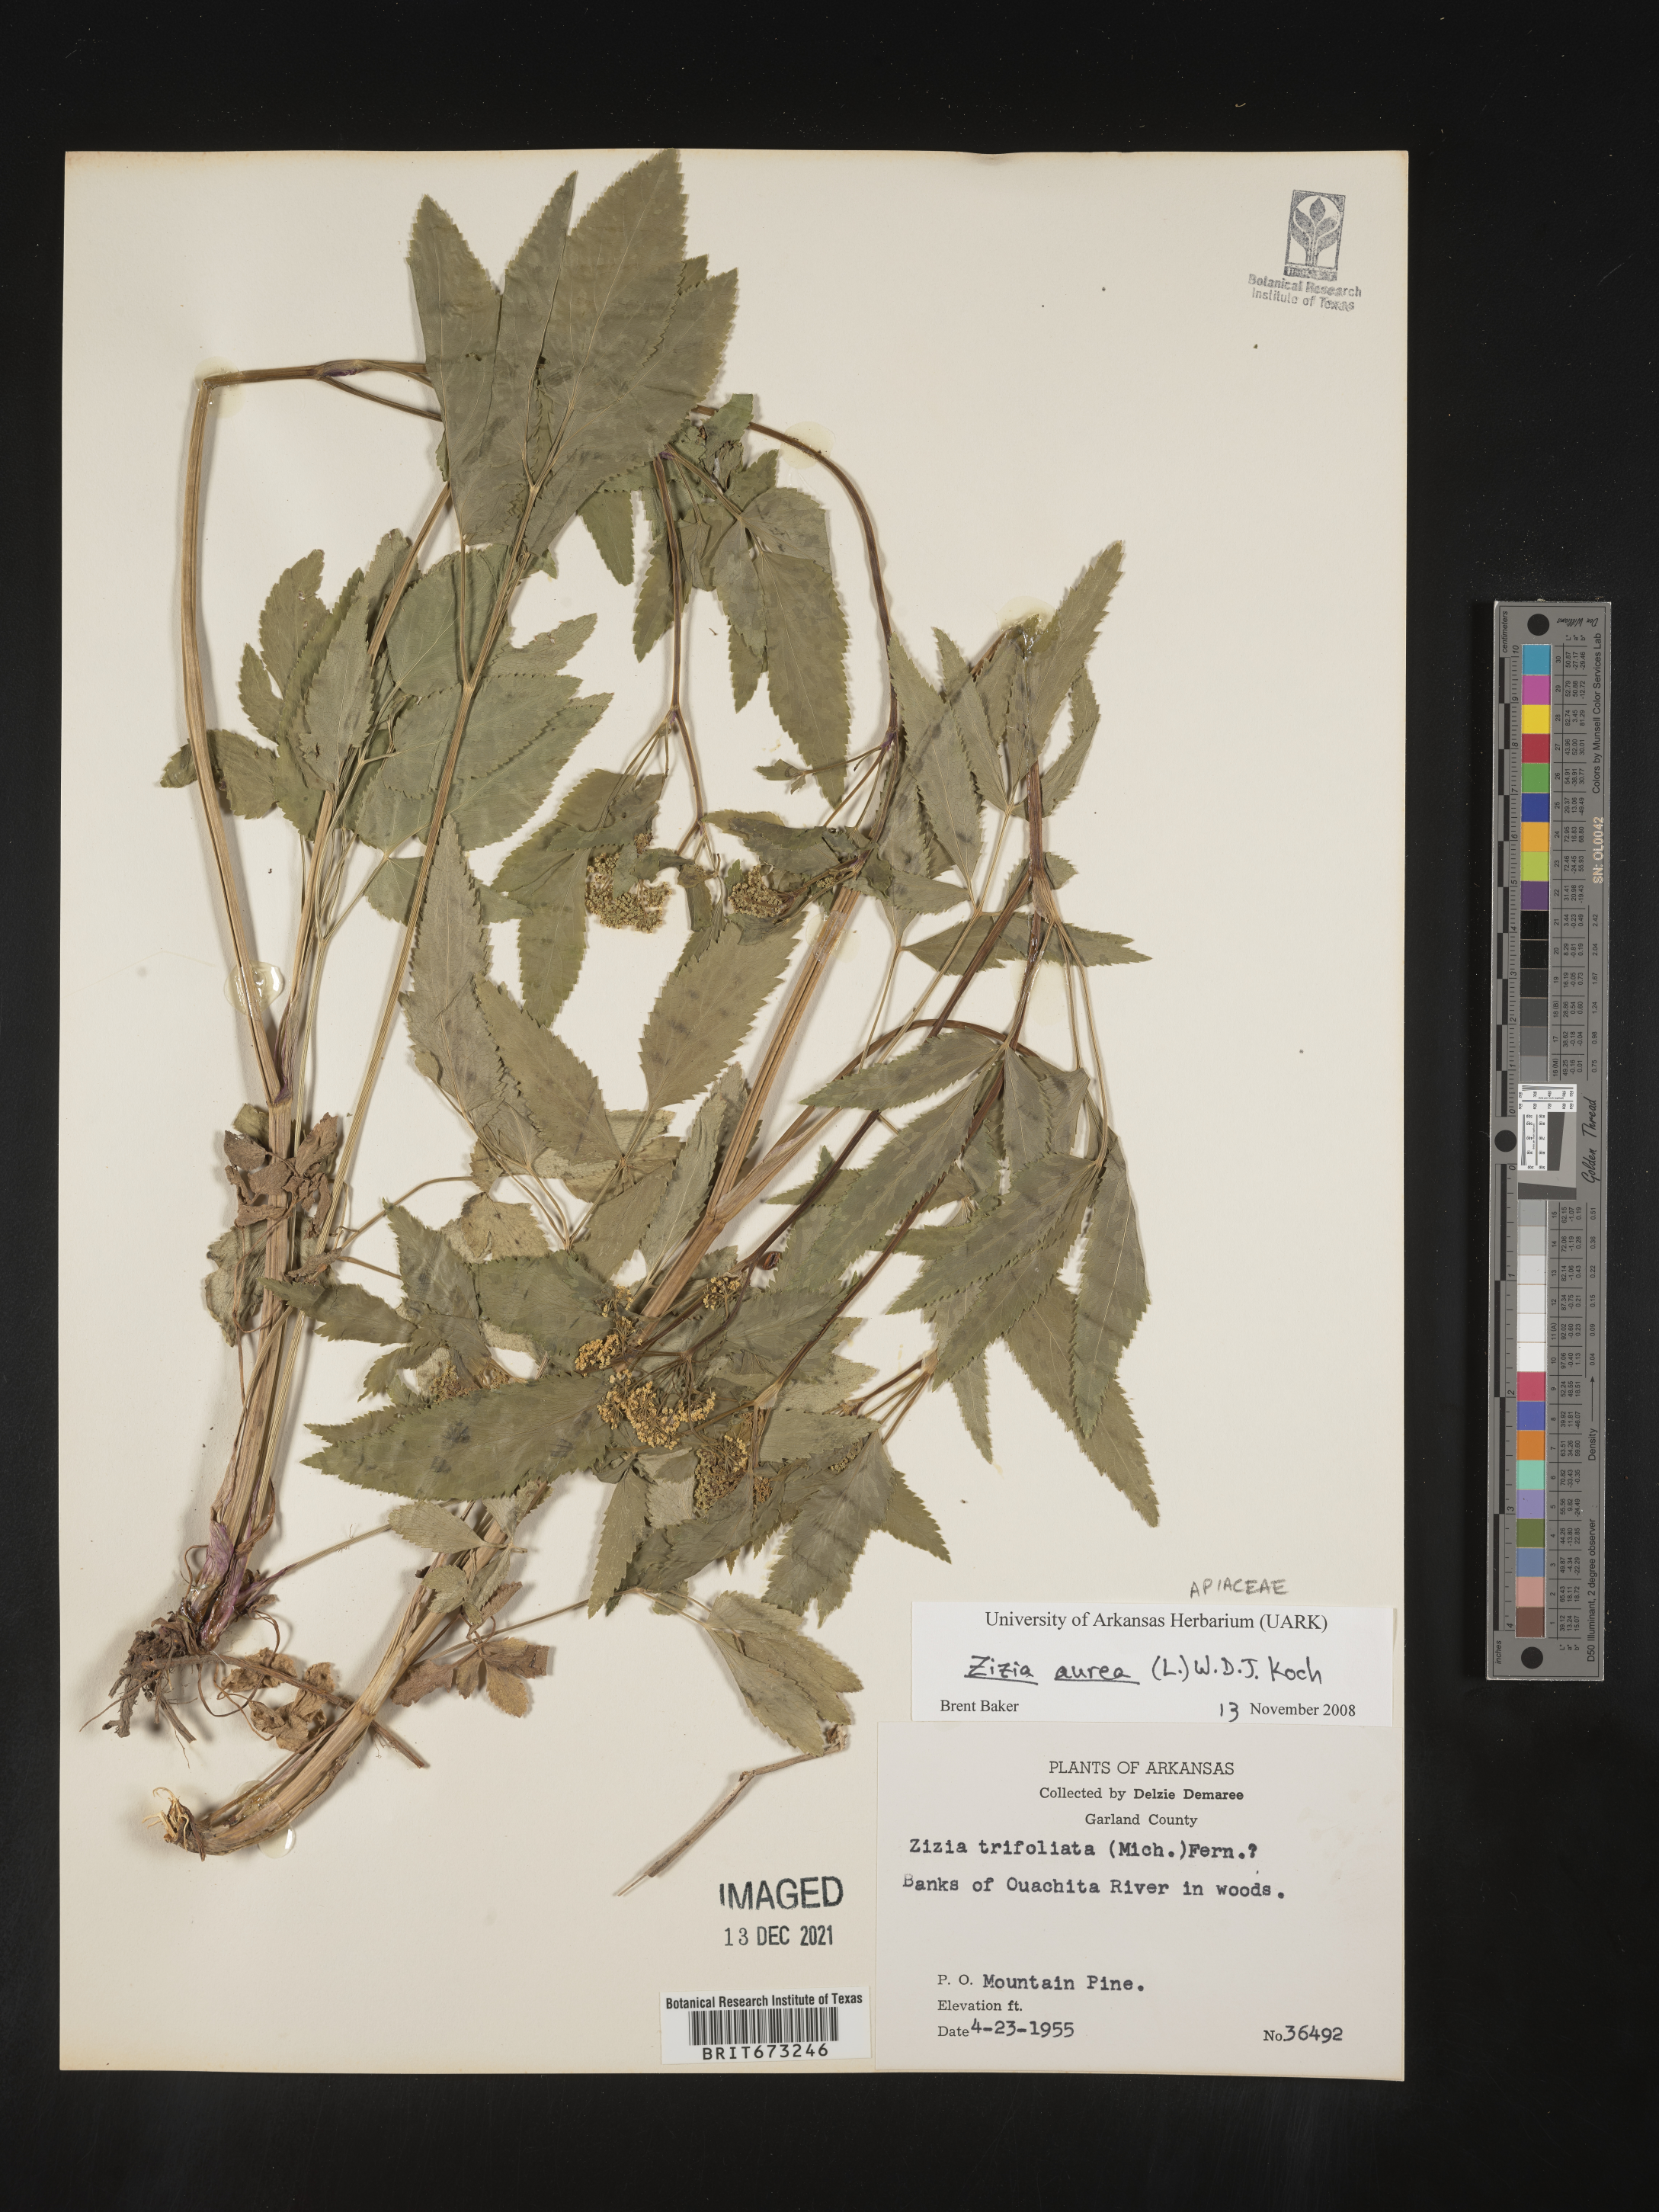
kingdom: Plantae
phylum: Tracheophyta
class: Magnoliopsida
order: Apiales
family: Apiaceae
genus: Zizia
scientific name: Zizia aurea
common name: Golden alexanders
